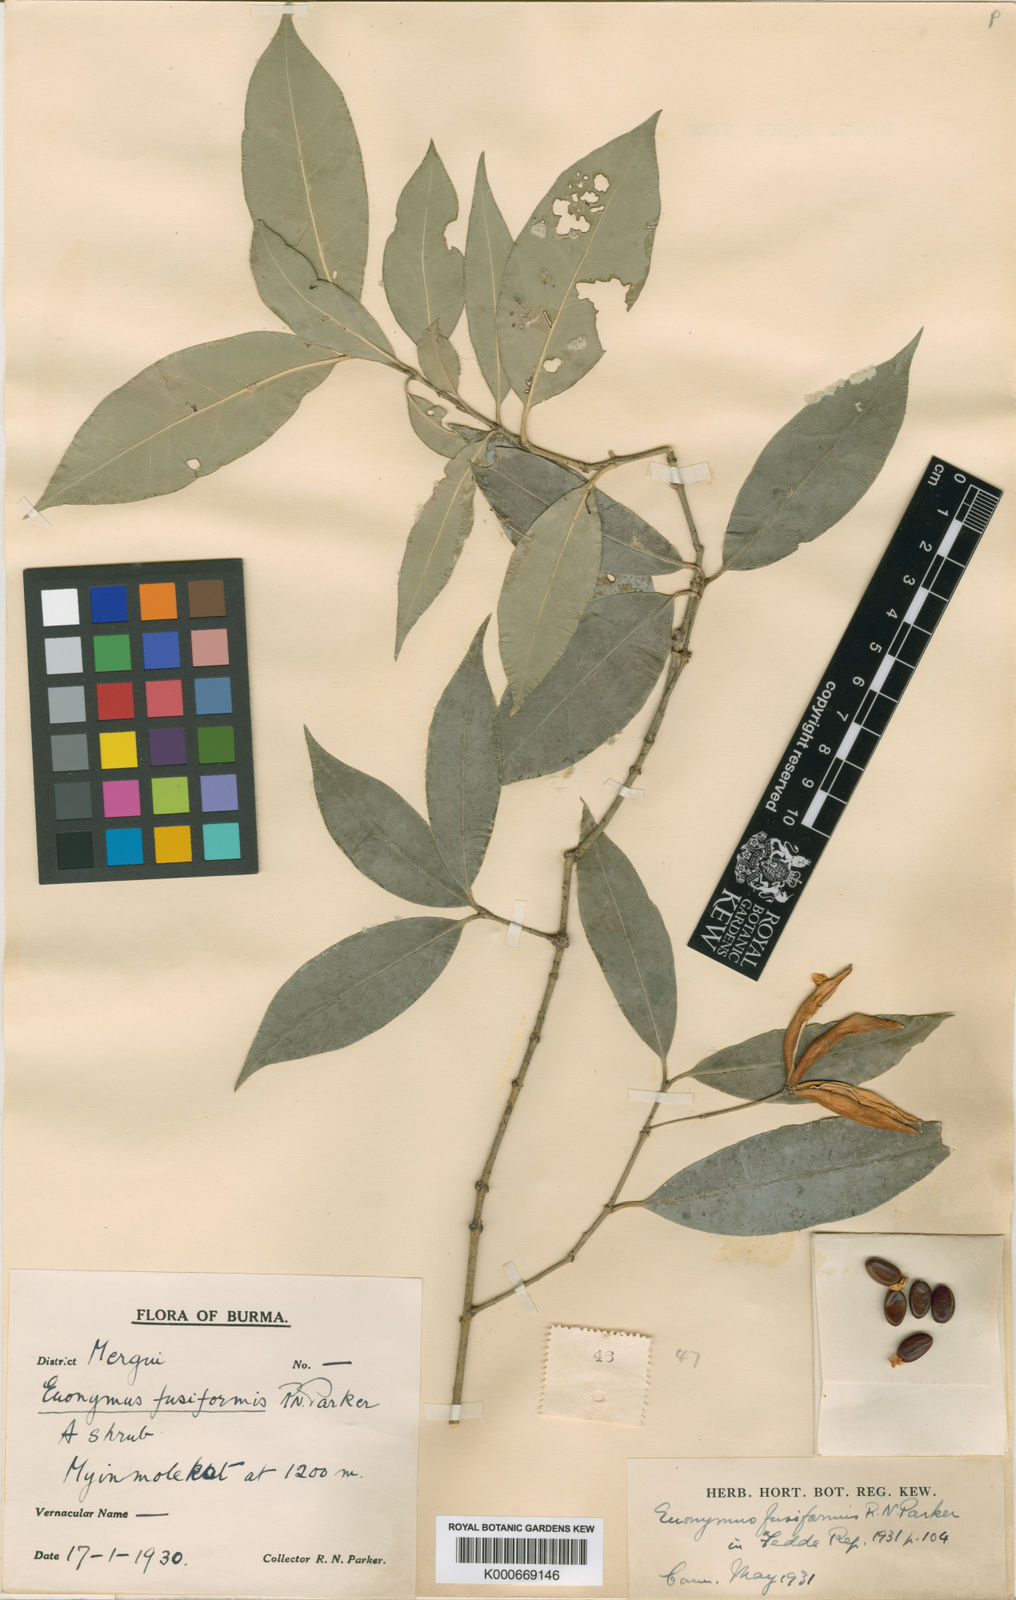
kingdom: Plantae
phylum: Tracheophyta
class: Magnoliopsida
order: Celastrales
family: Celastraceae
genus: Euonymus
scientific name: Euonymus fusiformis
